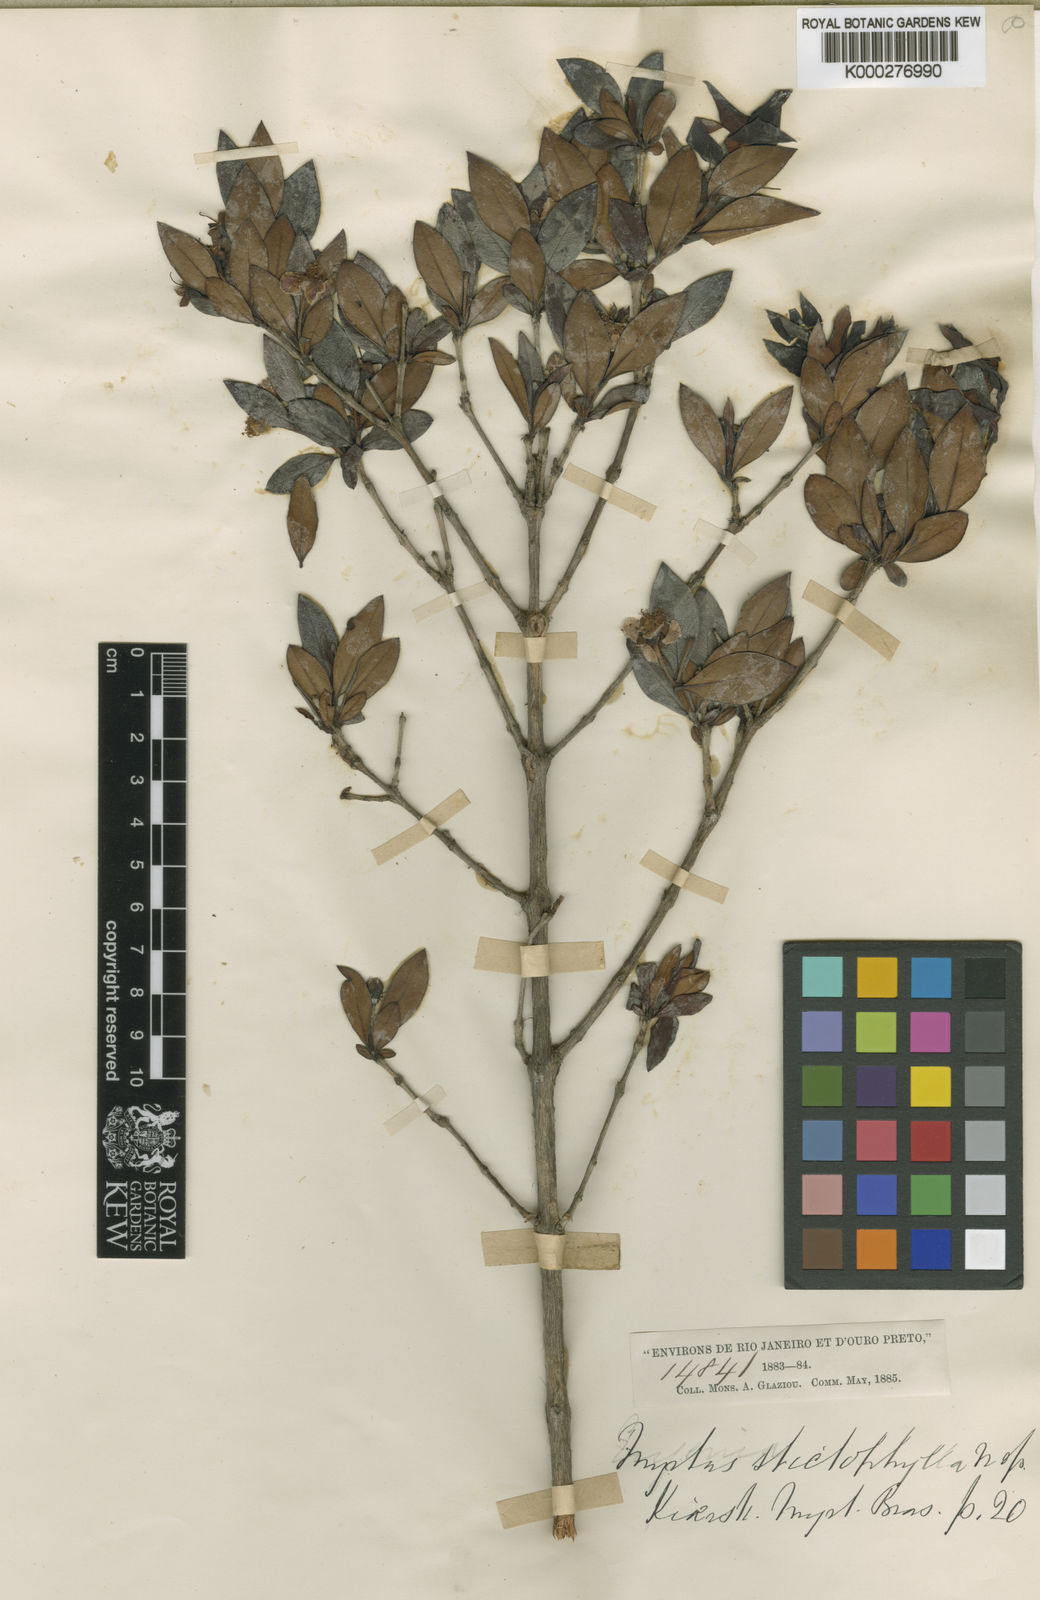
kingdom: Plantae
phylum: Tracheophyta
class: Magnoliopsida
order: Myrtales
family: Myrtaceae
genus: Accara
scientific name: Accara elegans
